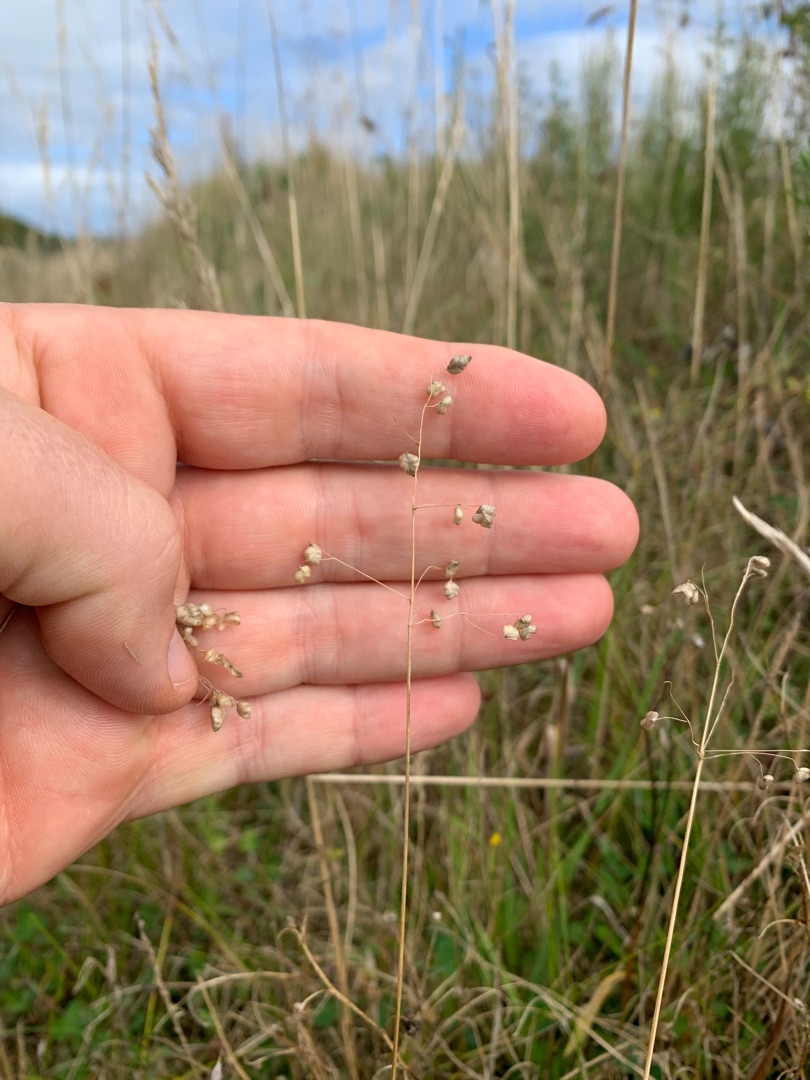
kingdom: Plantae
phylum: Tracheophyta
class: Liliopsida
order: Poales
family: Poaceae
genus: Briza
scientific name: Briza media
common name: Hjertegræs
